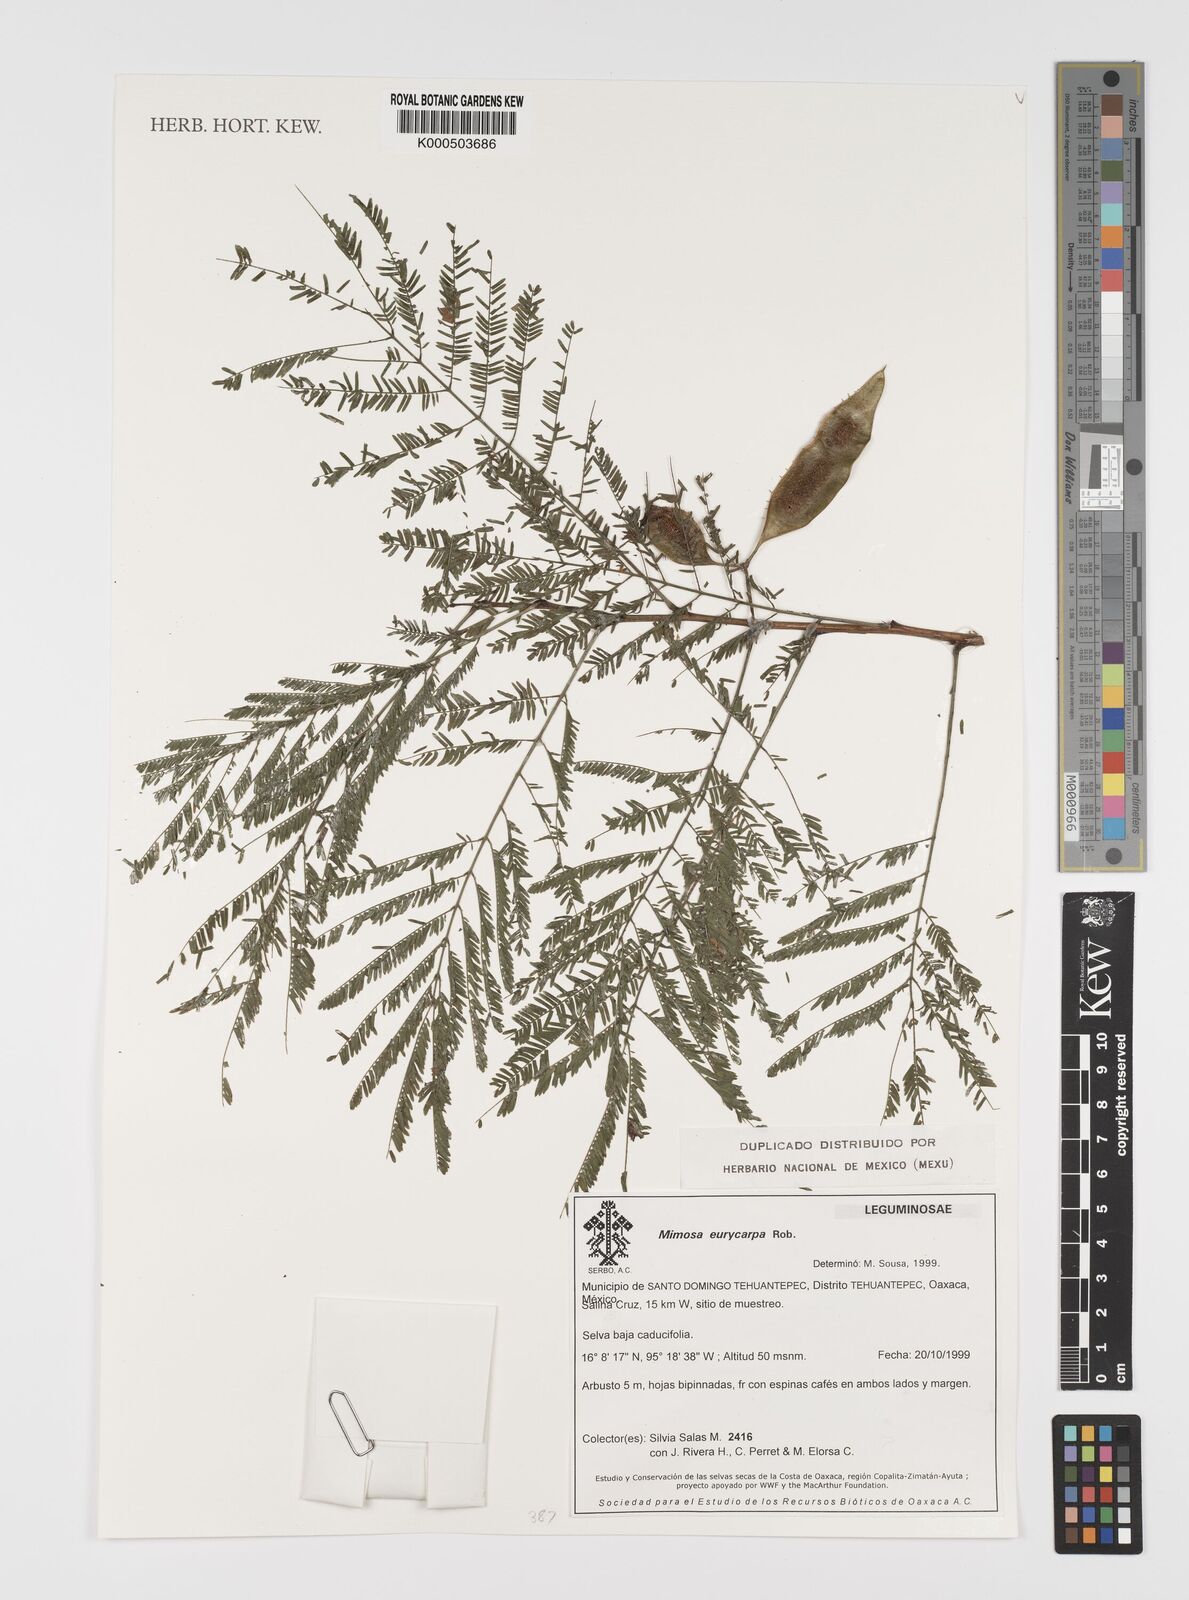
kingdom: Plantae
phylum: Tracheophyta
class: Magnoliopsida
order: Fabales
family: Fabaceae
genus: Mimosa
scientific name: Mimosa acantholoba
